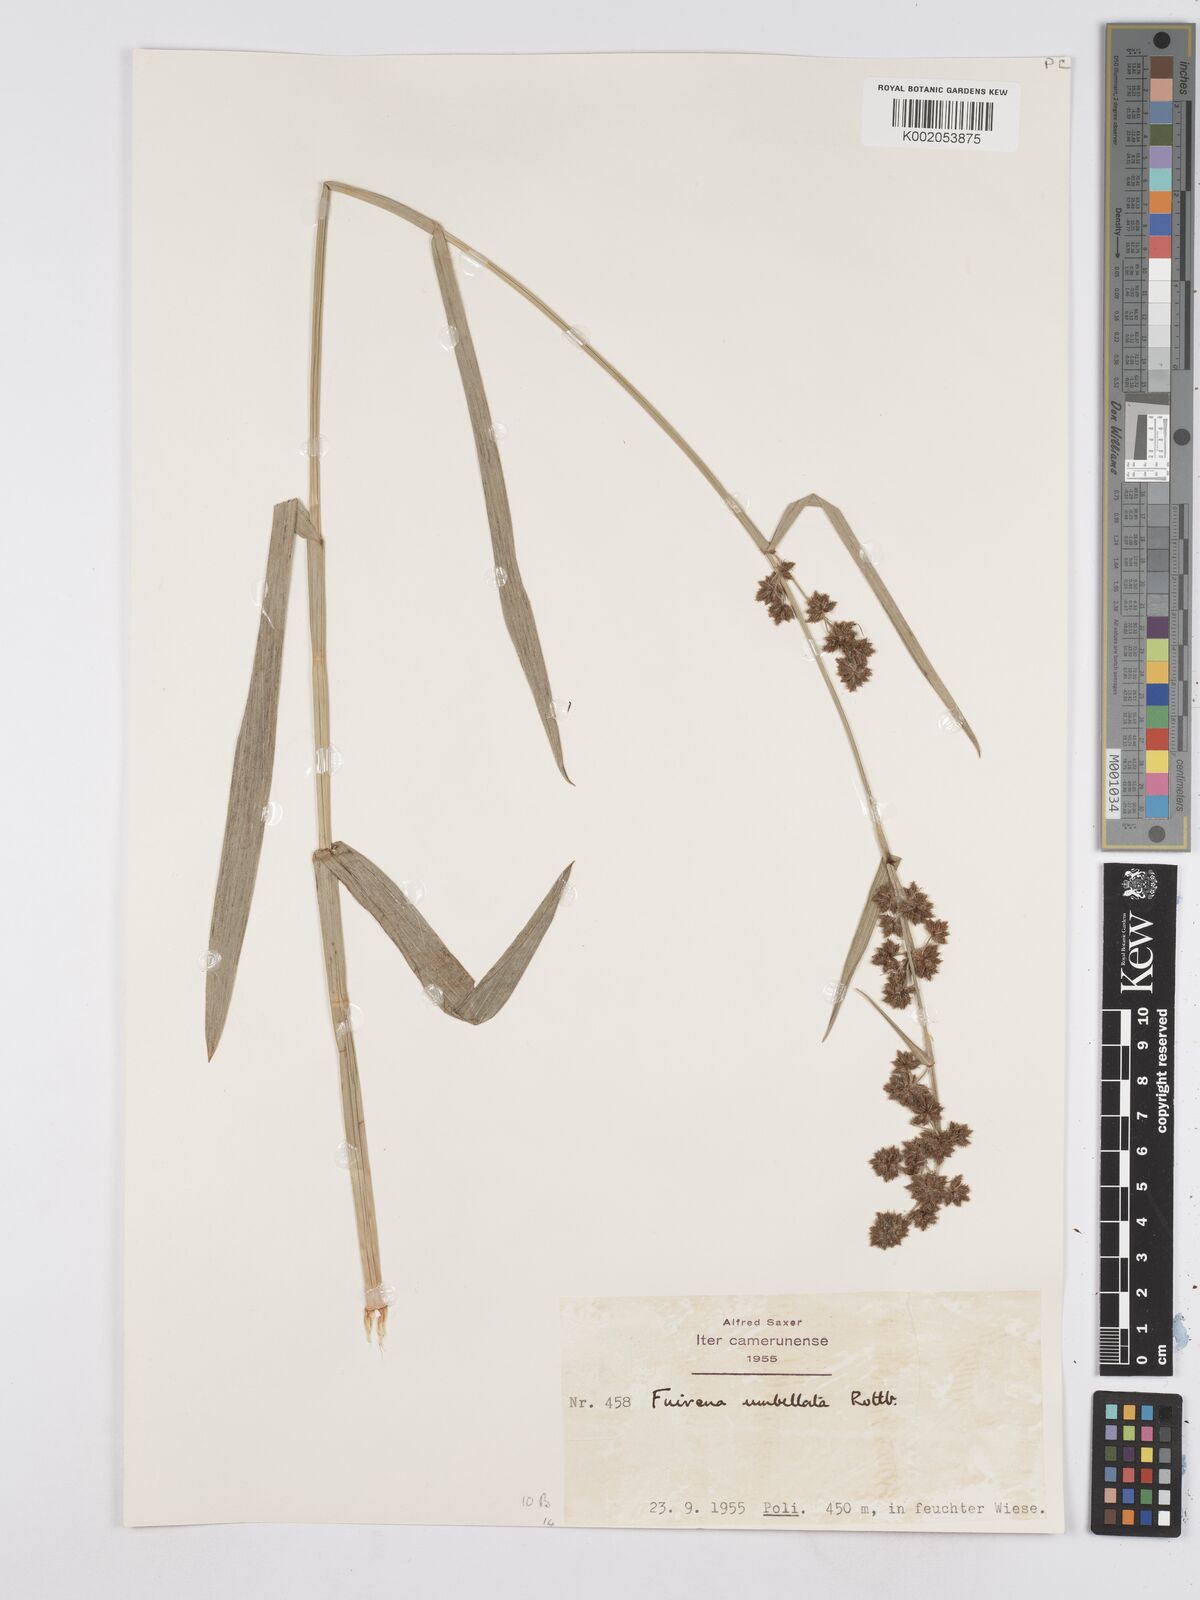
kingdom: Plantae
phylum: Tracheophyta
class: Liliopsida
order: Poales
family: Cyperaceae
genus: Fuirena
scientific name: Fuirena umbellata
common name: Yefen
